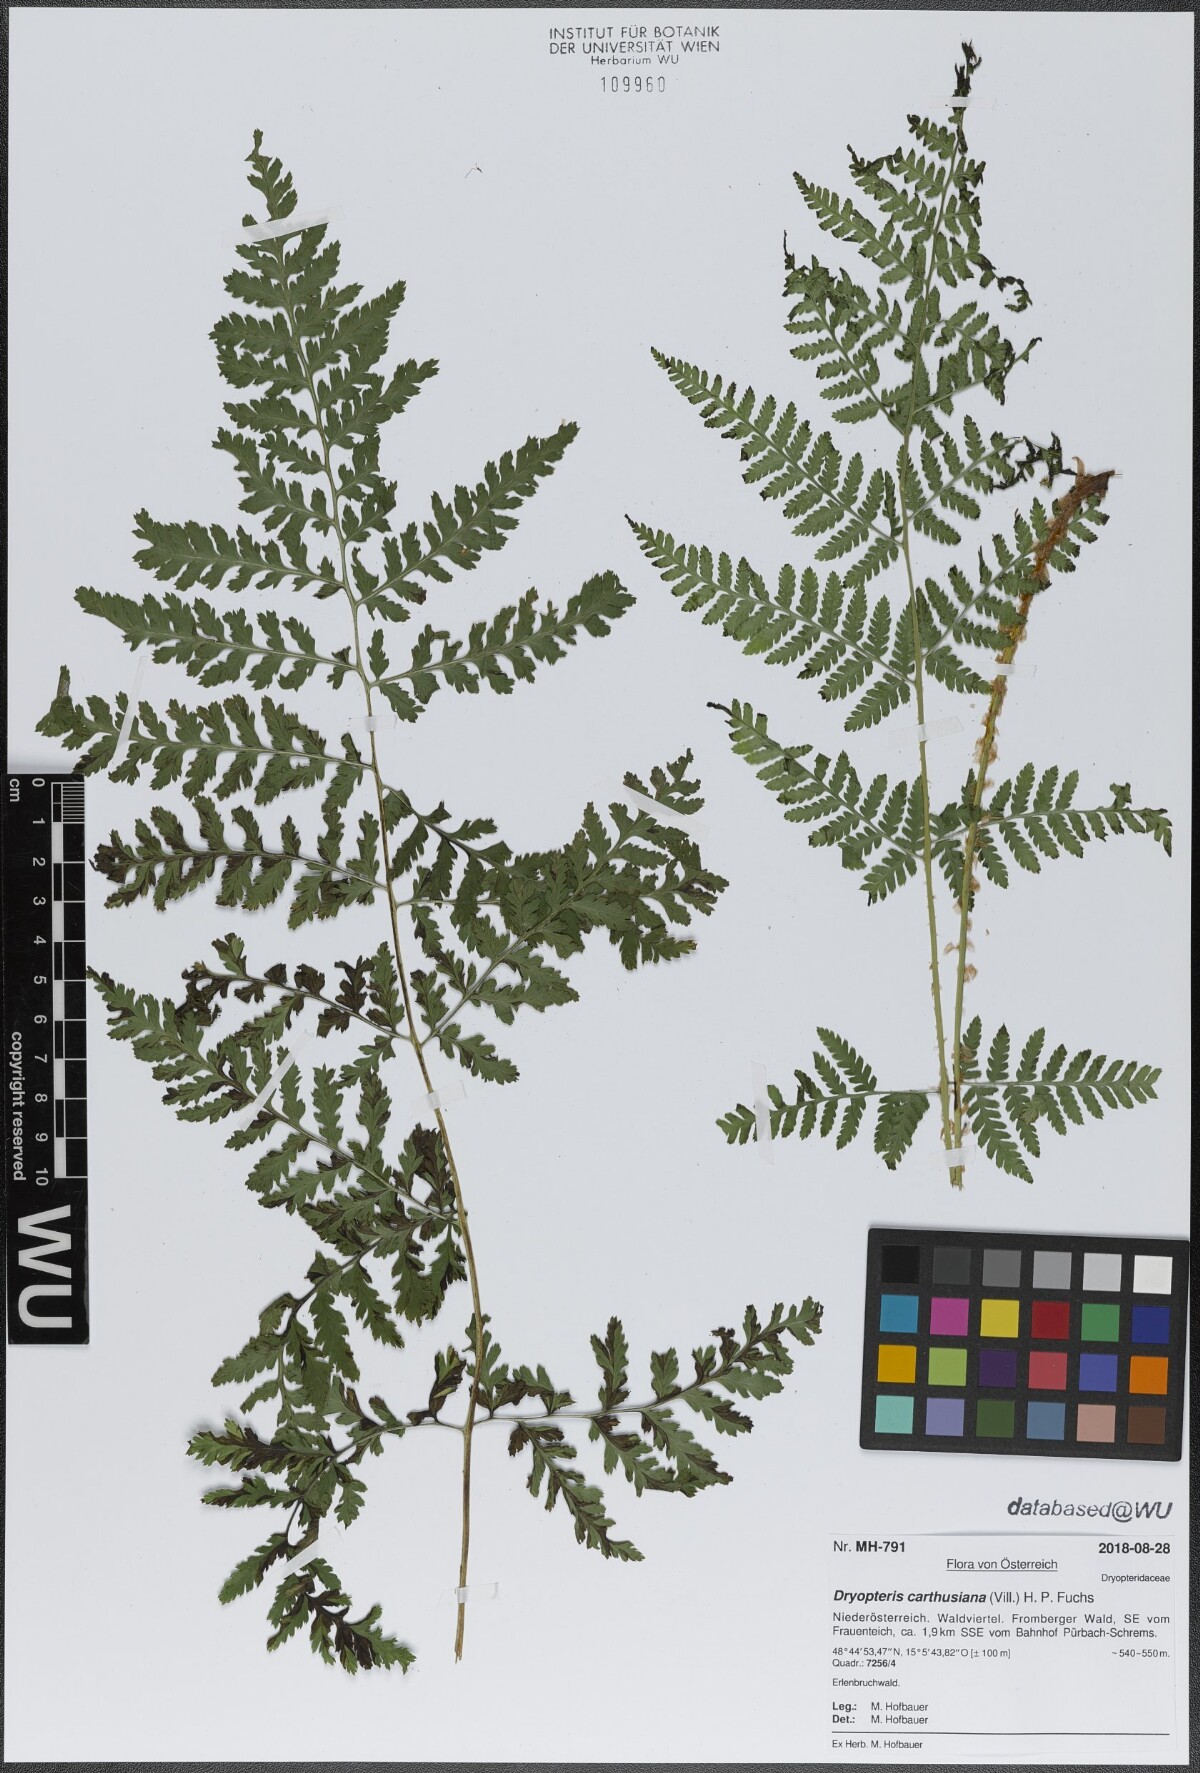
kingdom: Plantae
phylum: Tracheophyta
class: Polypodiopsida
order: Polypodiales
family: Dryopteridaceae
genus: Dryopteris
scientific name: Dryopteris carthusiana
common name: Narrow buckler-fern
